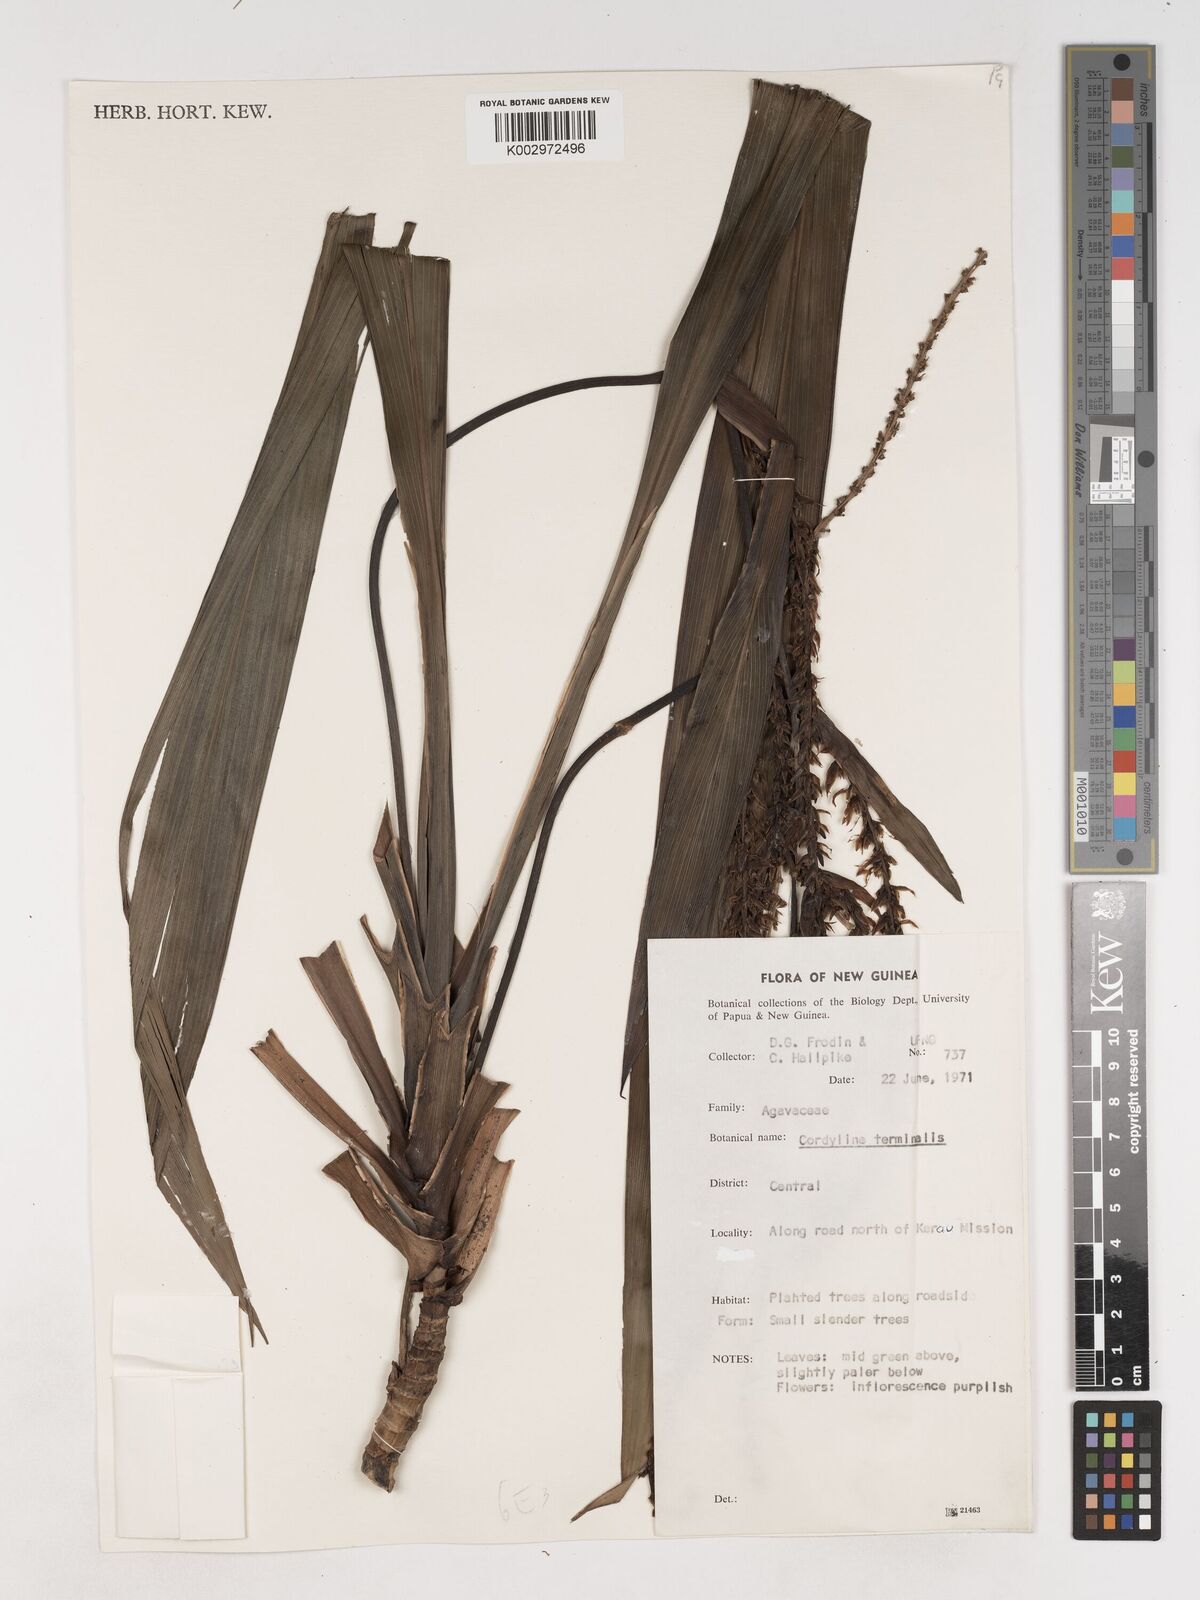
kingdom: Plantae
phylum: Tracheophyta
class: Liliopsida
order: Asparagales
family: Asparagaceae
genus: Cordyline
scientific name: Cordyline fruticosa
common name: Good-luck-plant
